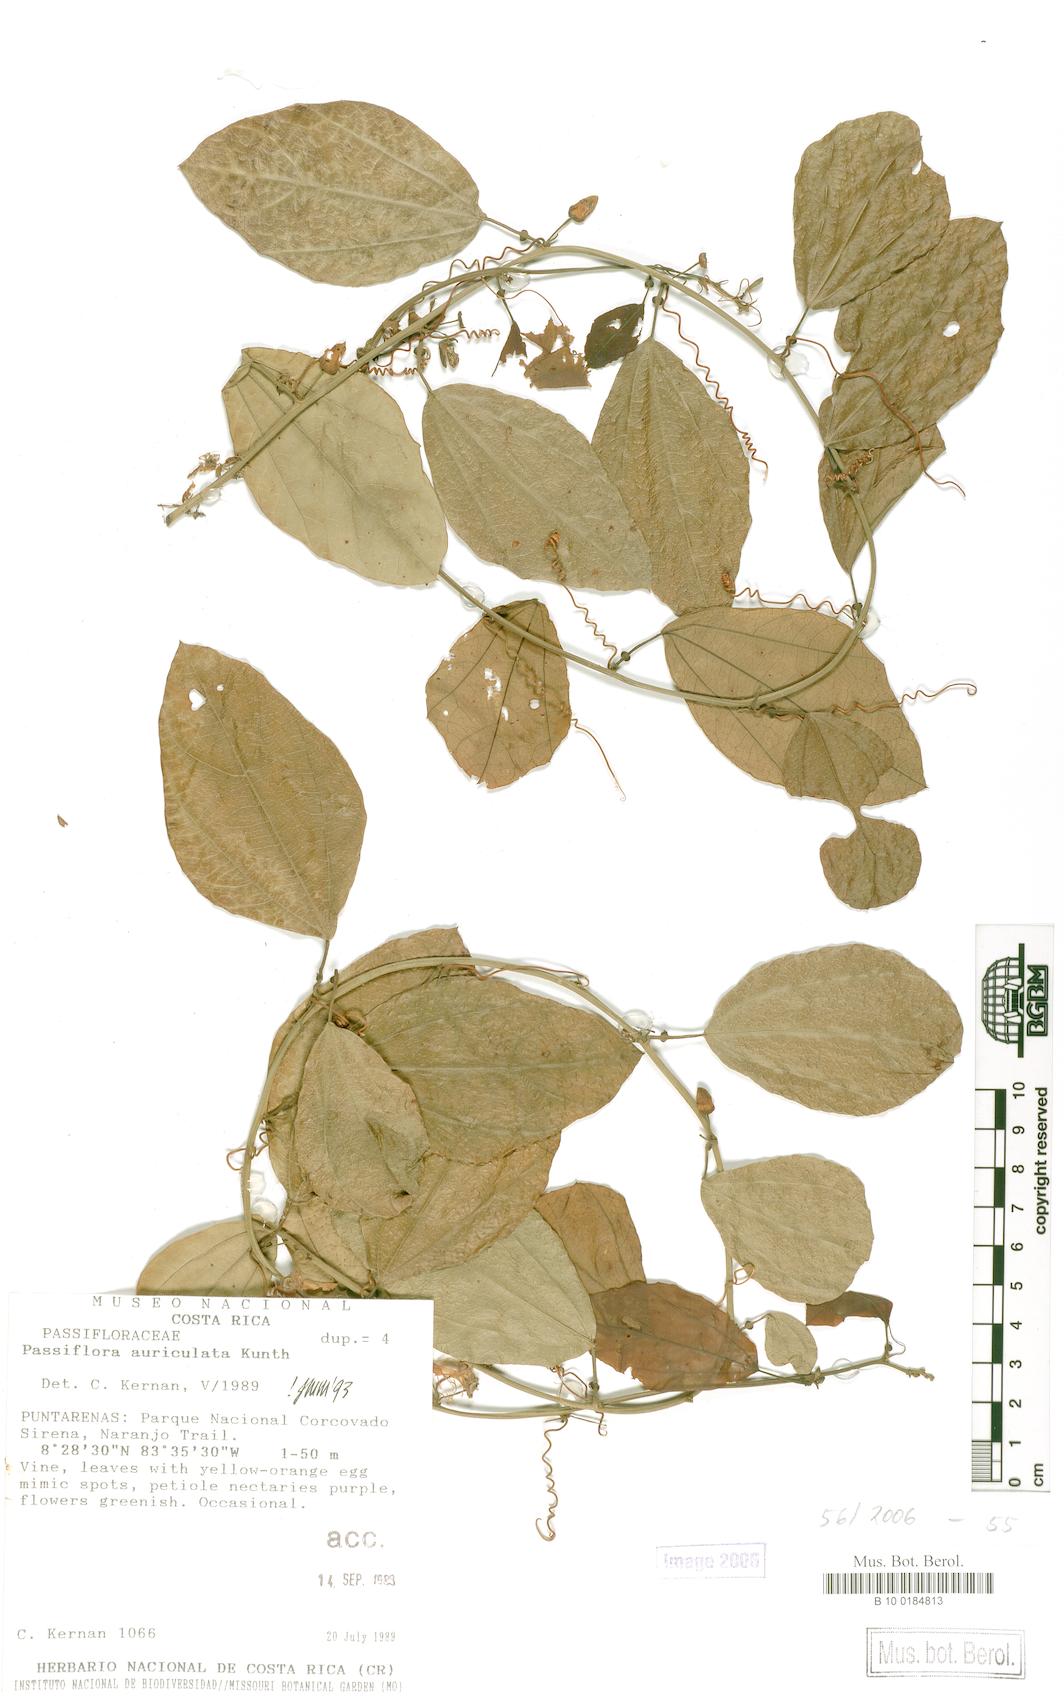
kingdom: Plantae
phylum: Tracheophyta
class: Magnoliopsida
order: Malpighiales
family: Passifloraceae
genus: Passiflora
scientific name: Passiflora auriculata
